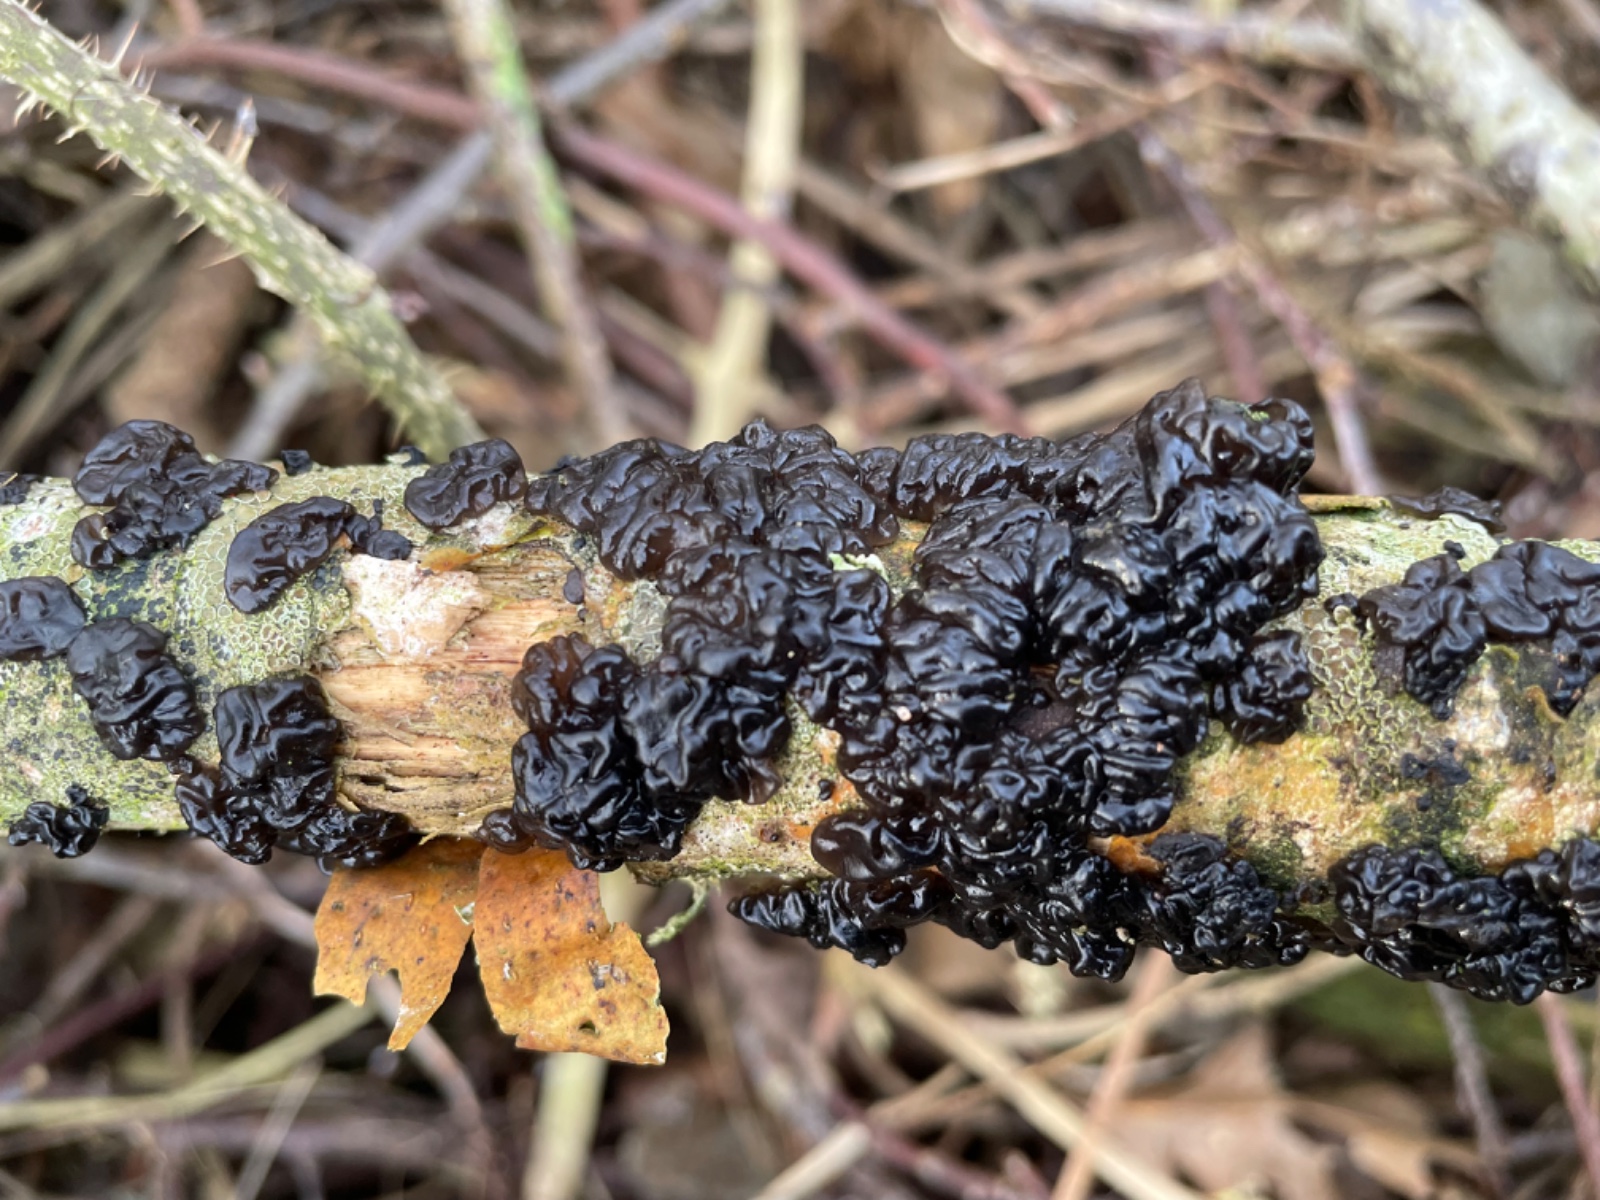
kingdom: Fungi
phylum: Basidiomycota
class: Agaricomycetes
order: Auriculariales
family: Auriculariaceae
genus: Exidia
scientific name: Exidia nigricans
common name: almindelig bævretop
